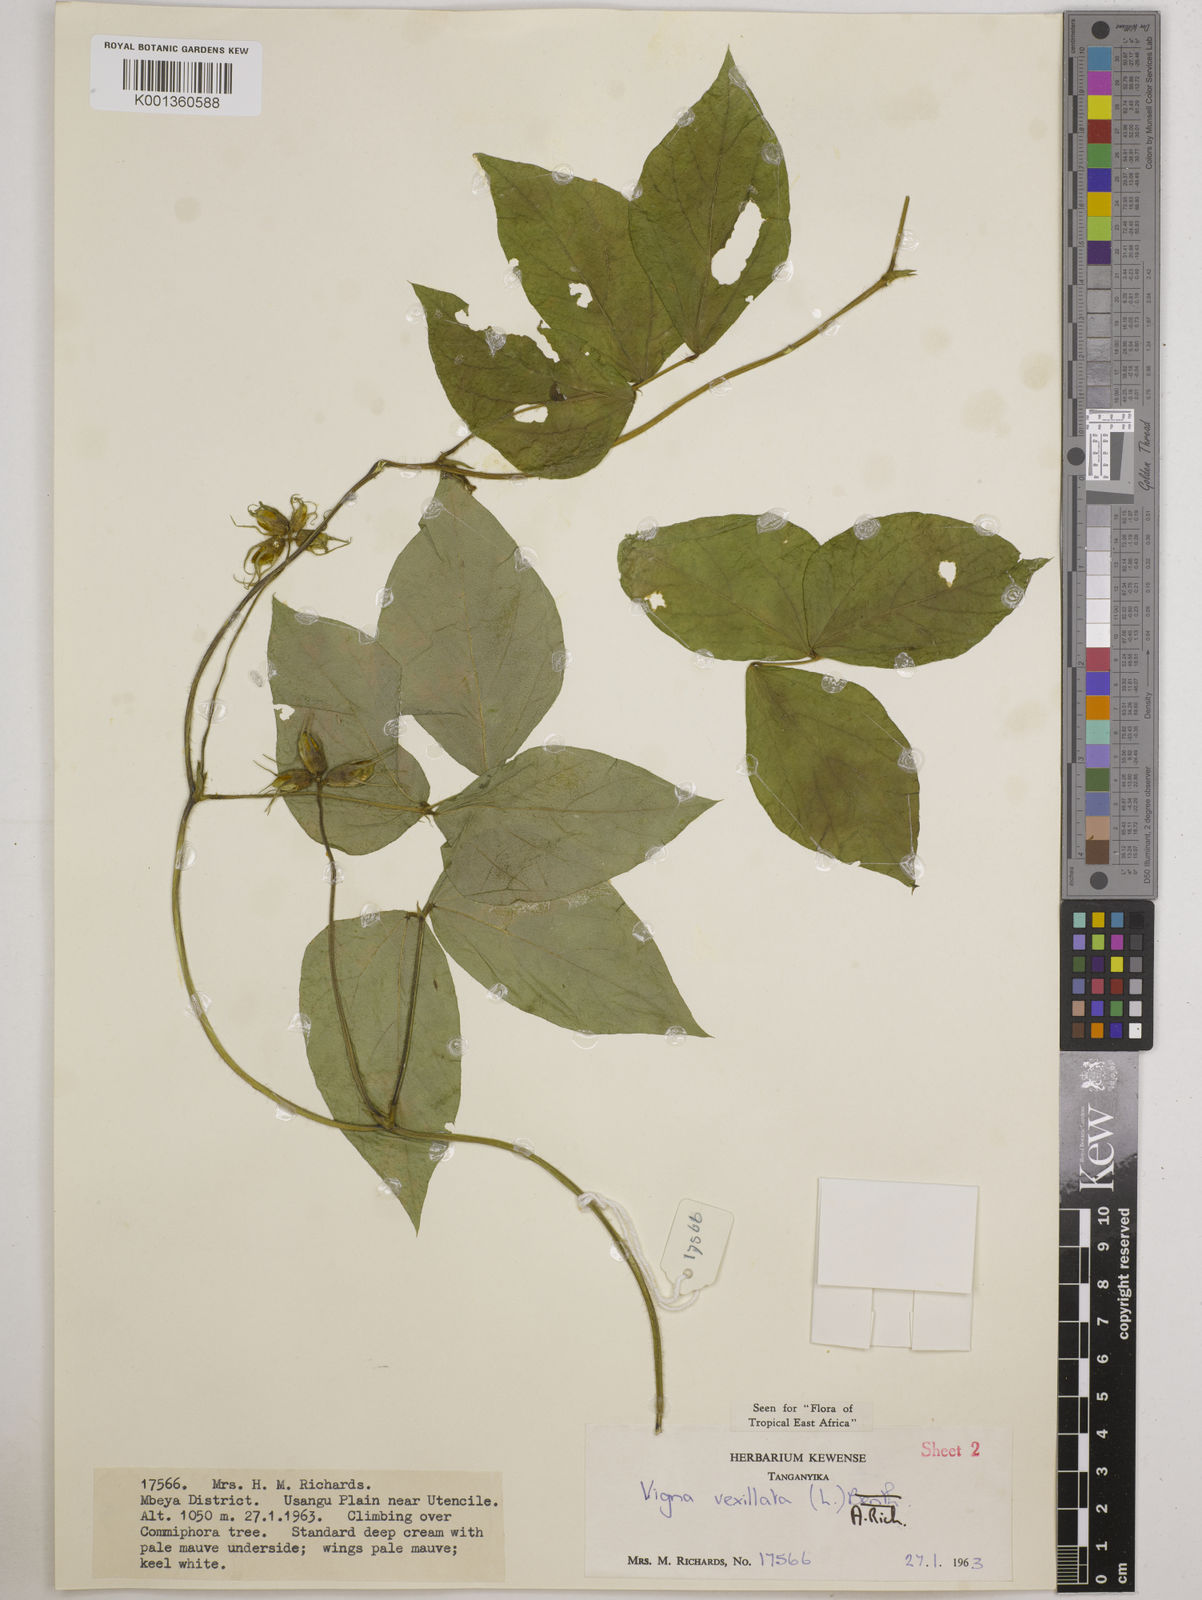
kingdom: Plantae
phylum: Tracheophyta
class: Magnoliopsida
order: Fabales
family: Fabaceae
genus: Vigna
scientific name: Vigna vexillata
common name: Zombi pea
